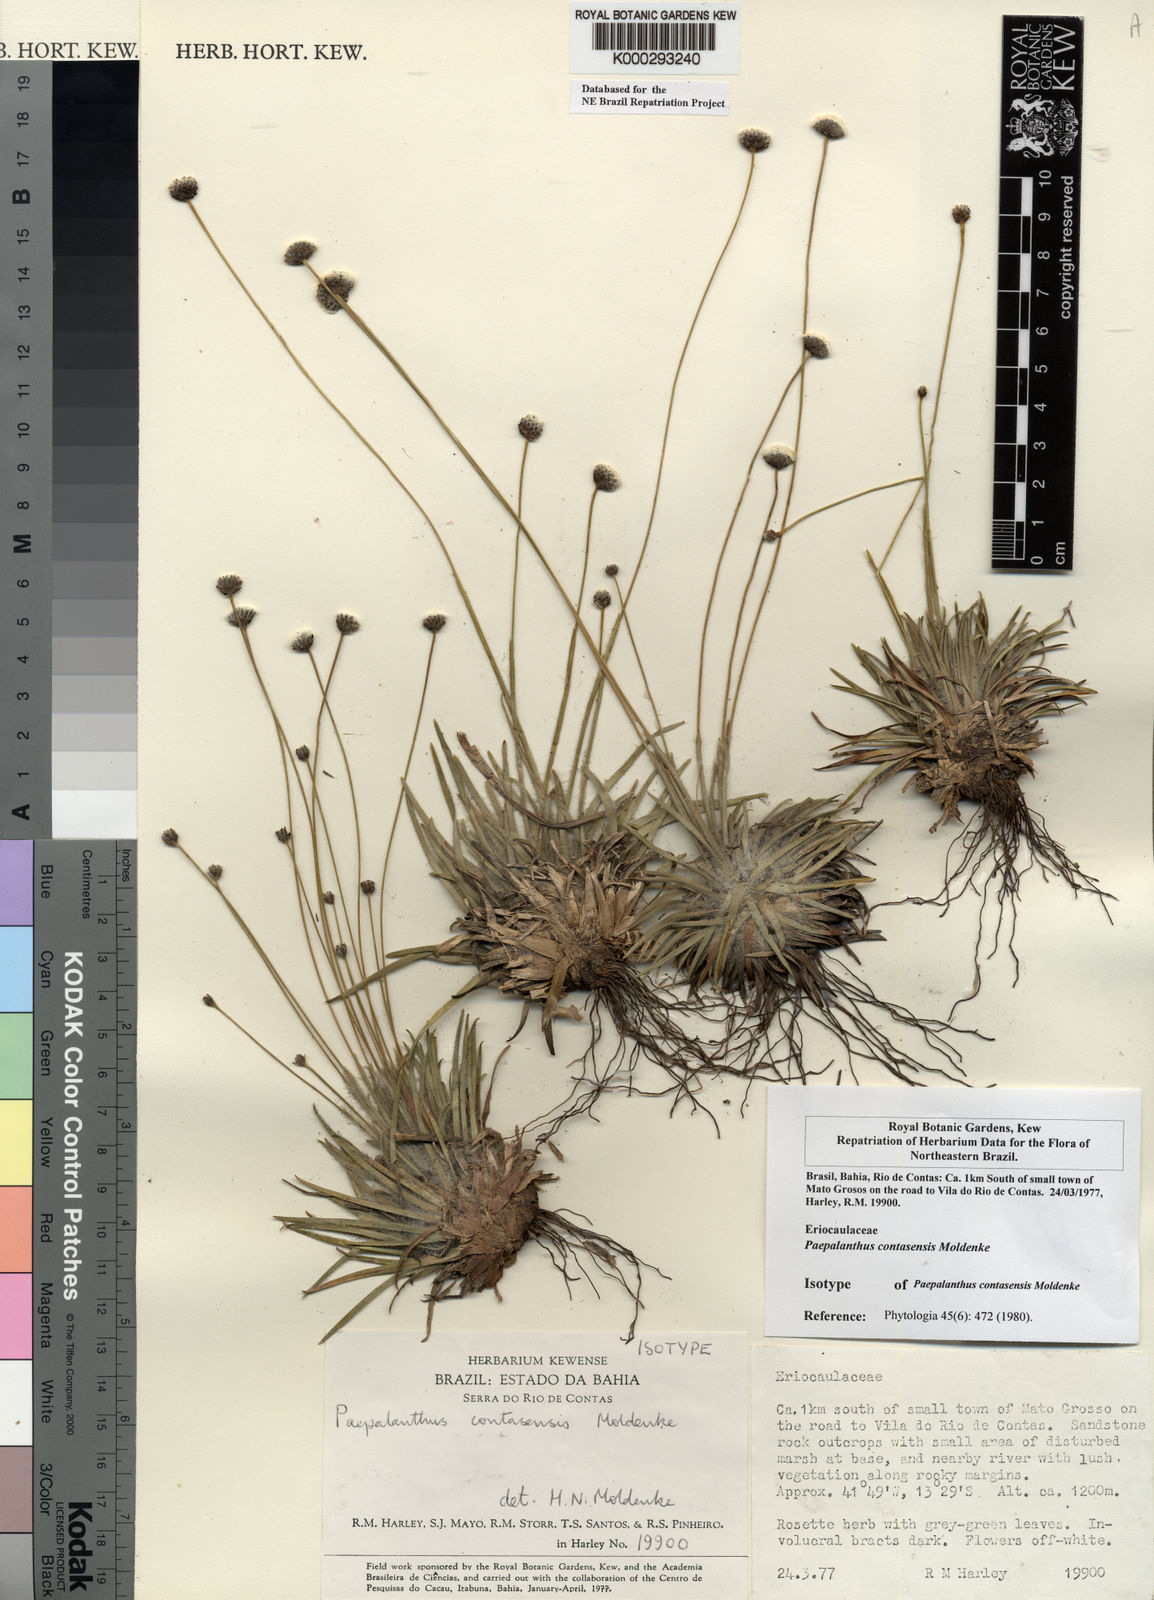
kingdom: Plantae
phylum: Tracheophyta
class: Liliopsida
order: Poales
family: Eriocaulaceae
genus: Paepalanthus
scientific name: Paepalanthus contasensis
